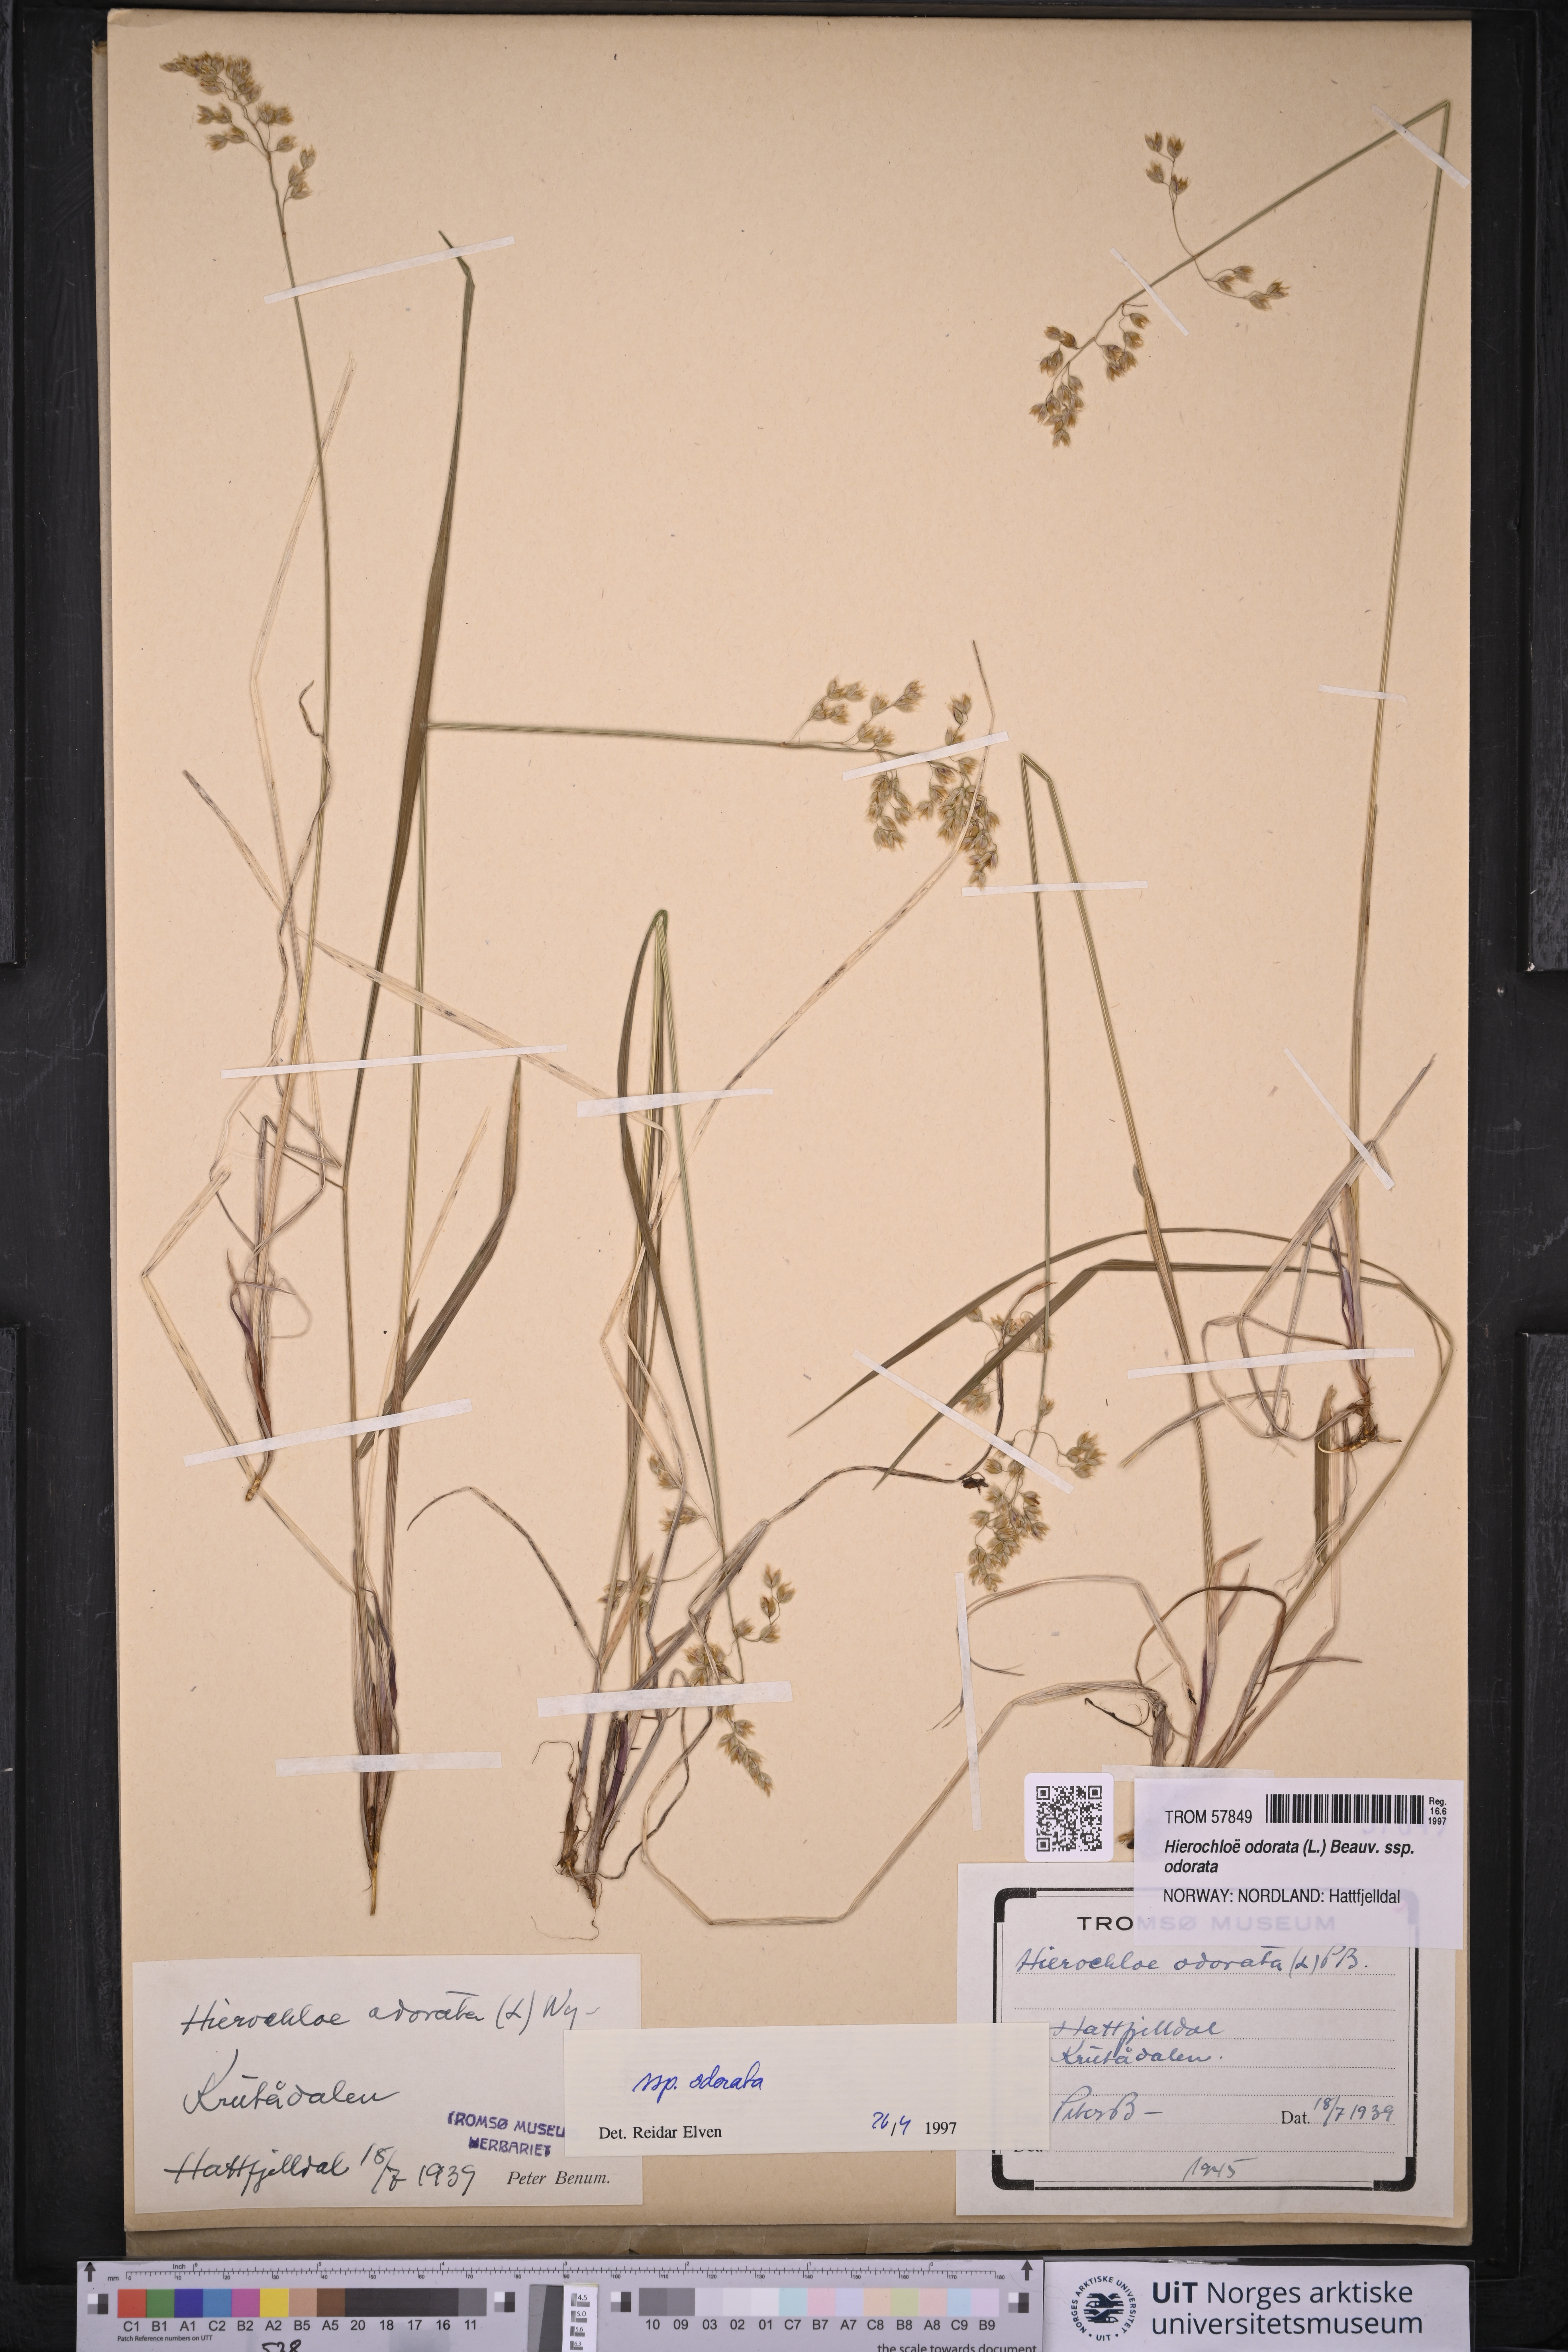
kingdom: Plantae
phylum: Tracheophyta
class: Liliopsida
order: Poales
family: Poaceae
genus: Anthoxanthum
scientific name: Anthoxanthum nitens
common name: Holy grass
